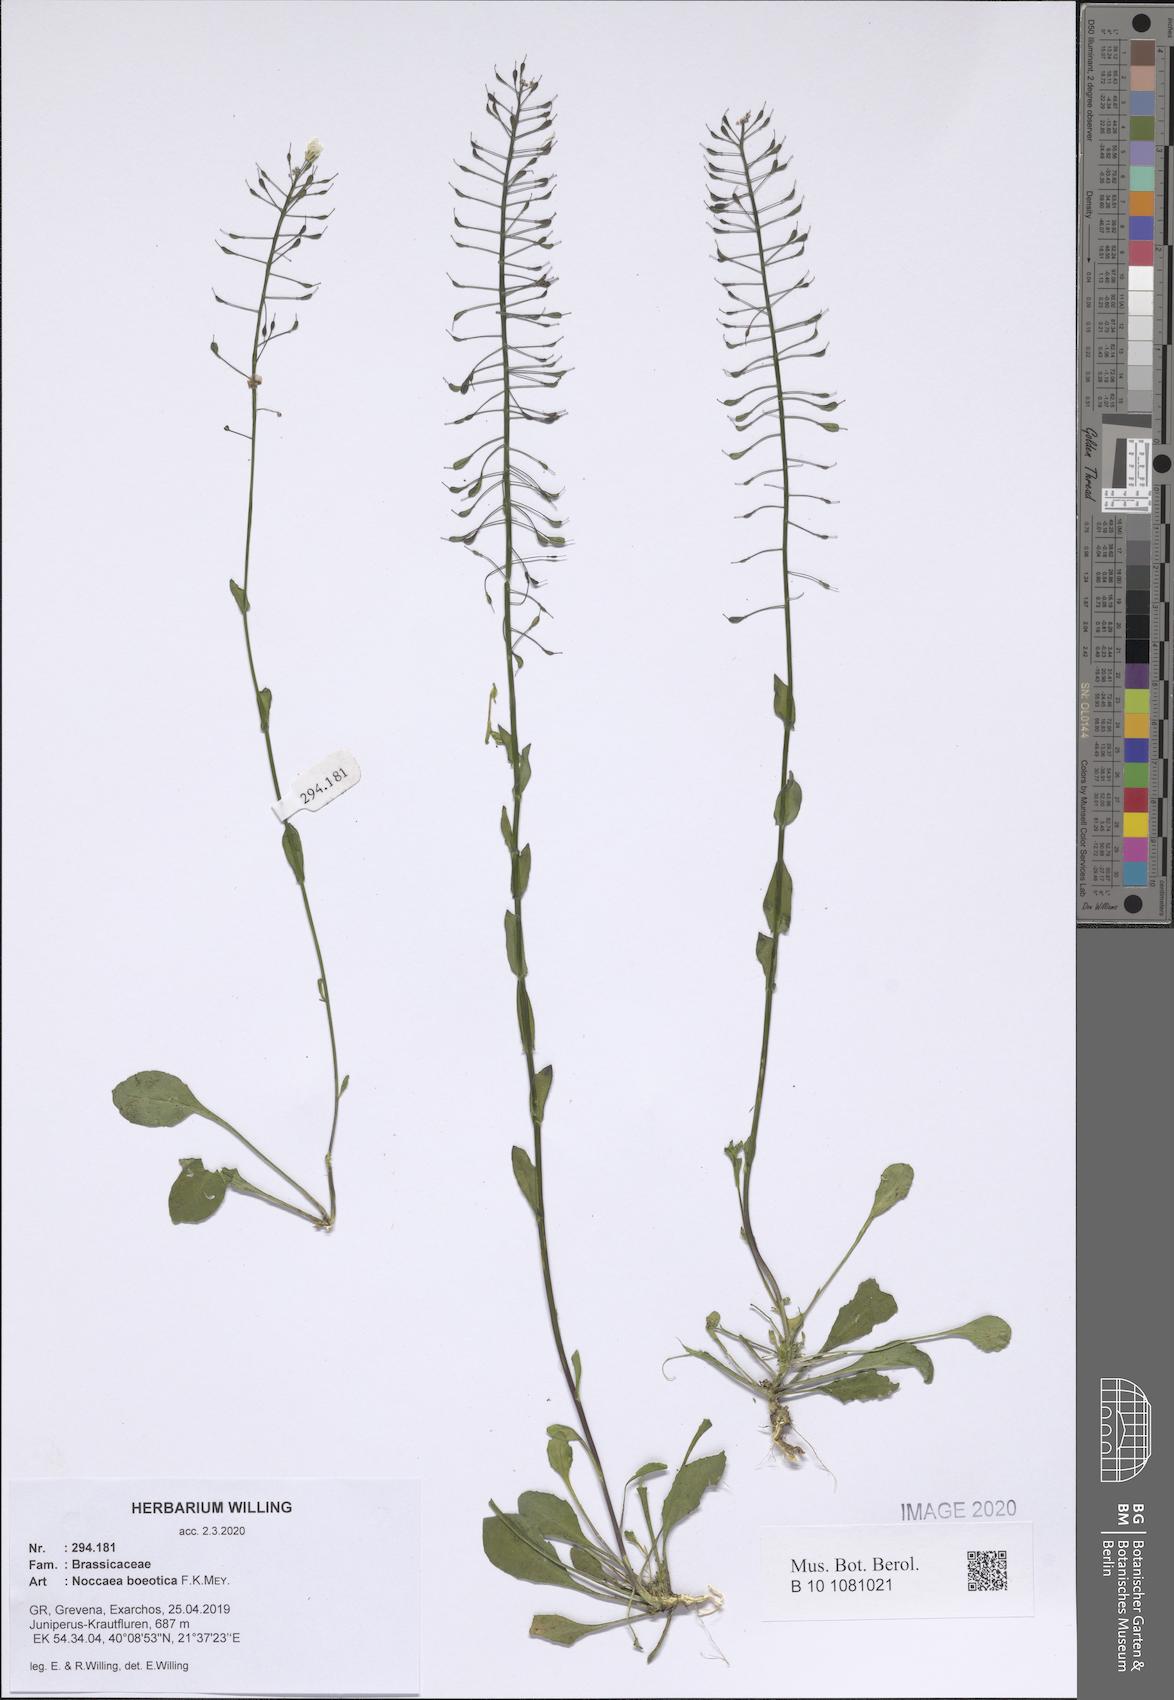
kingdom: Plantae
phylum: Tracheophyta
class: Magnoliopsida
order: Brassicales
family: Brassicaceae
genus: Noccaea
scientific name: Noccaea boeotica
